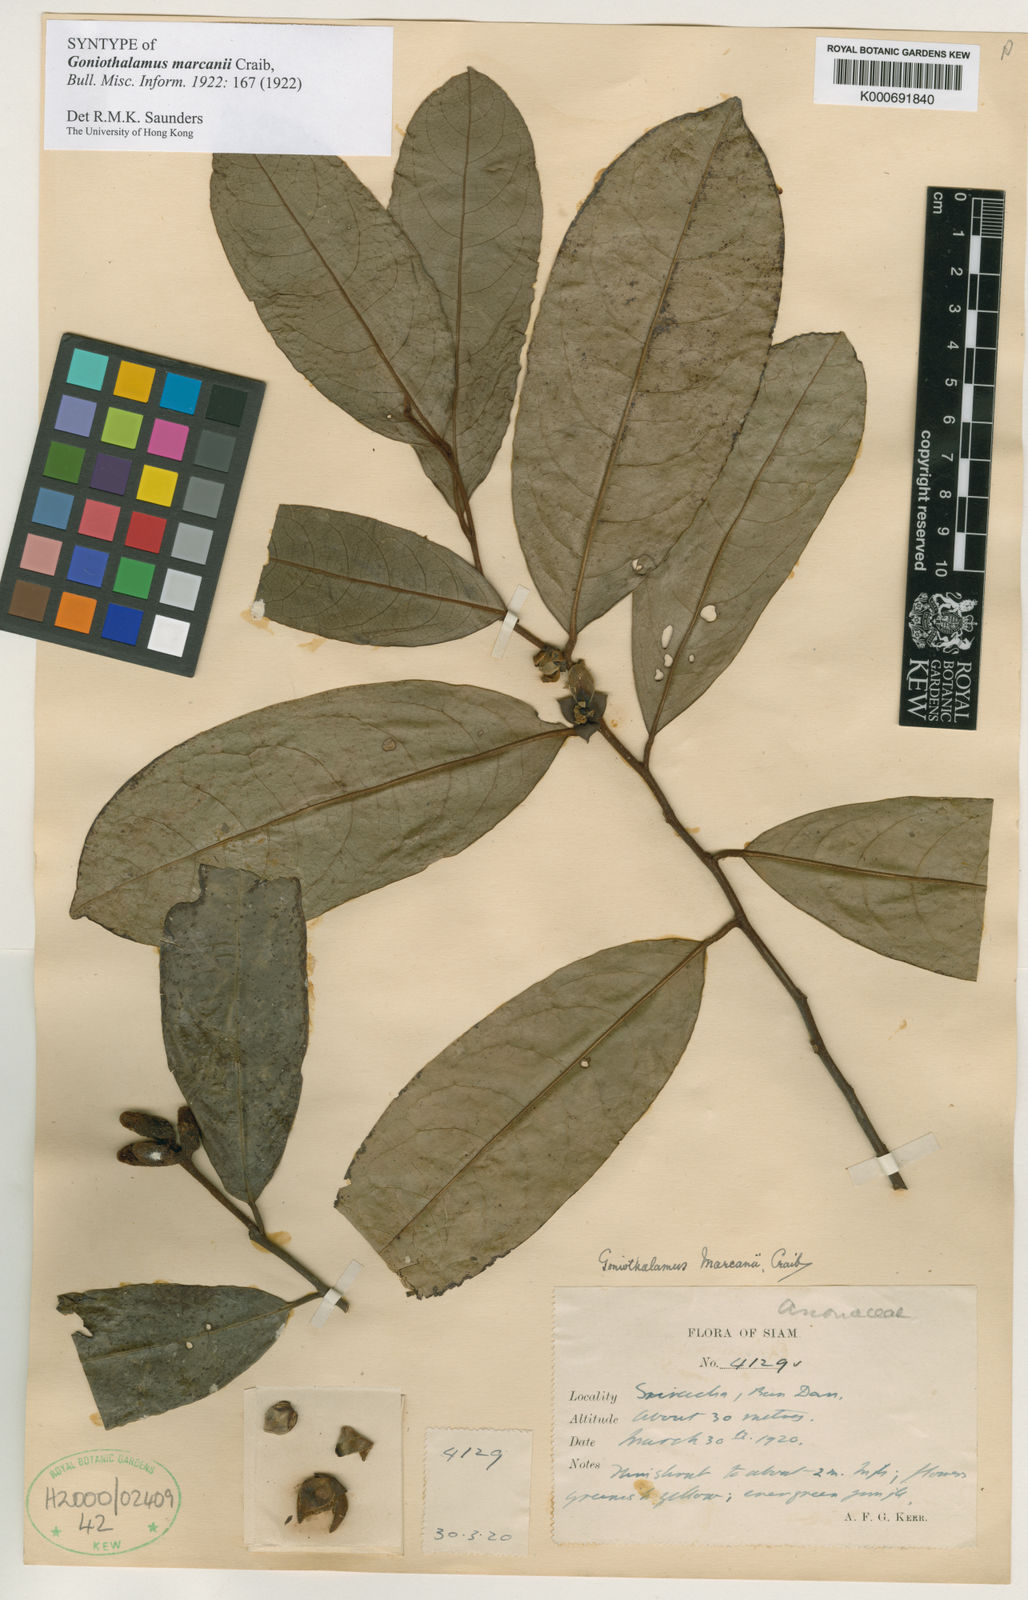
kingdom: Plantae
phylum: Tracheophyta
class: Magnoliopsida
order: Magnoliales
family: Annonaceae
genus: Goniothalamus
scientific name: Goniothalamus tamirensis
